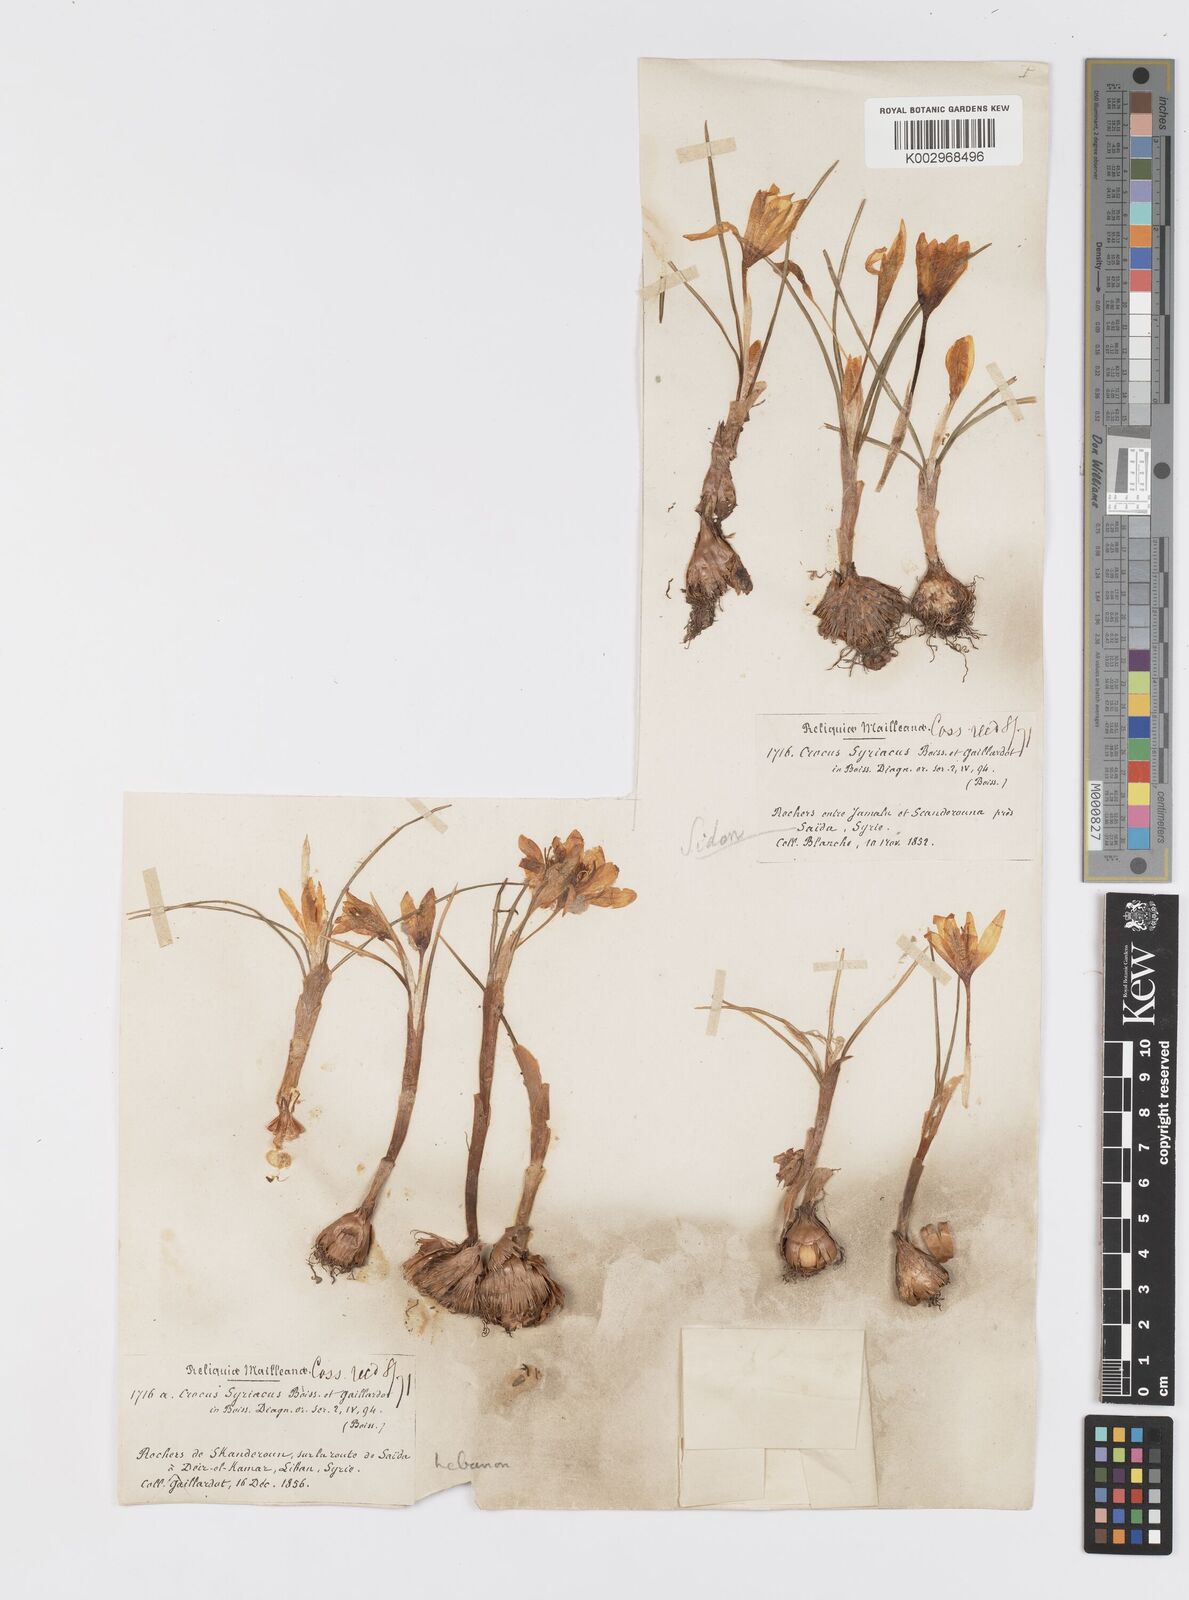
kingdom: Plantae
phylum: Tracheophyta
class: Liliopsida
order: Asparagales
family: Iridaceae
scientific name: Iridaceae
